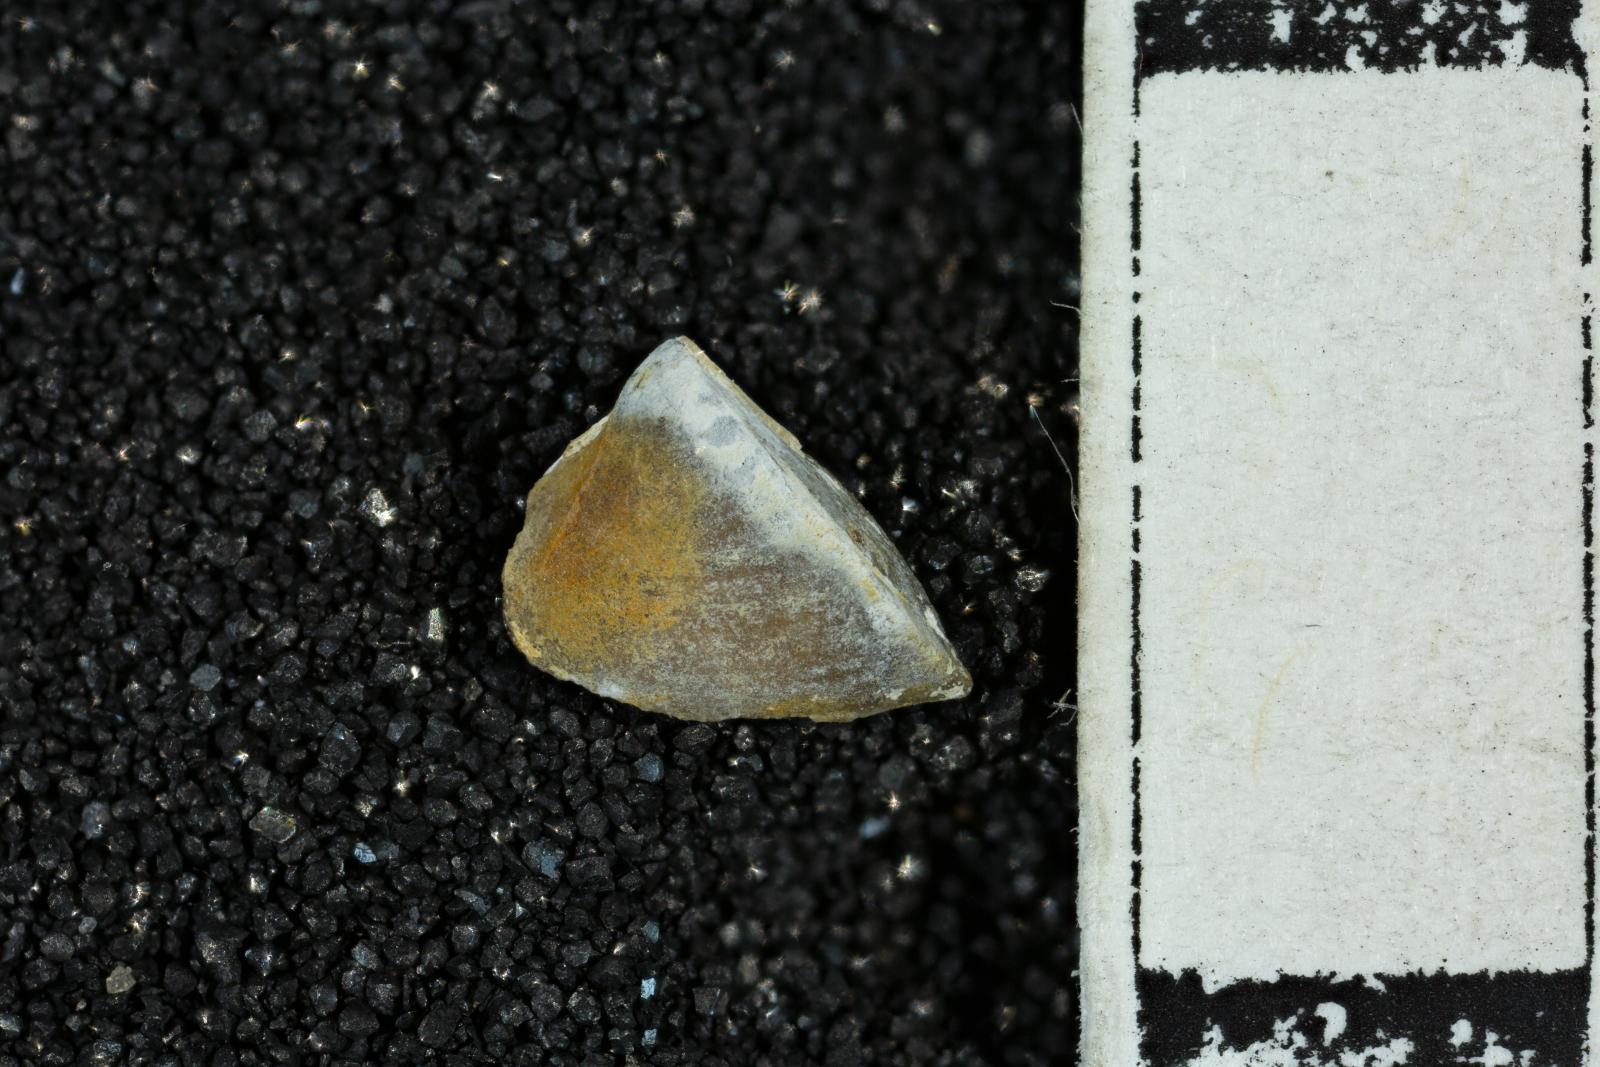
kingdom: Animalia
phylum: Mollusca
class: Bivalvia
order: Arcida
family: Noetiidae
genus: Trinacria
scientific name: Trinacria cor
